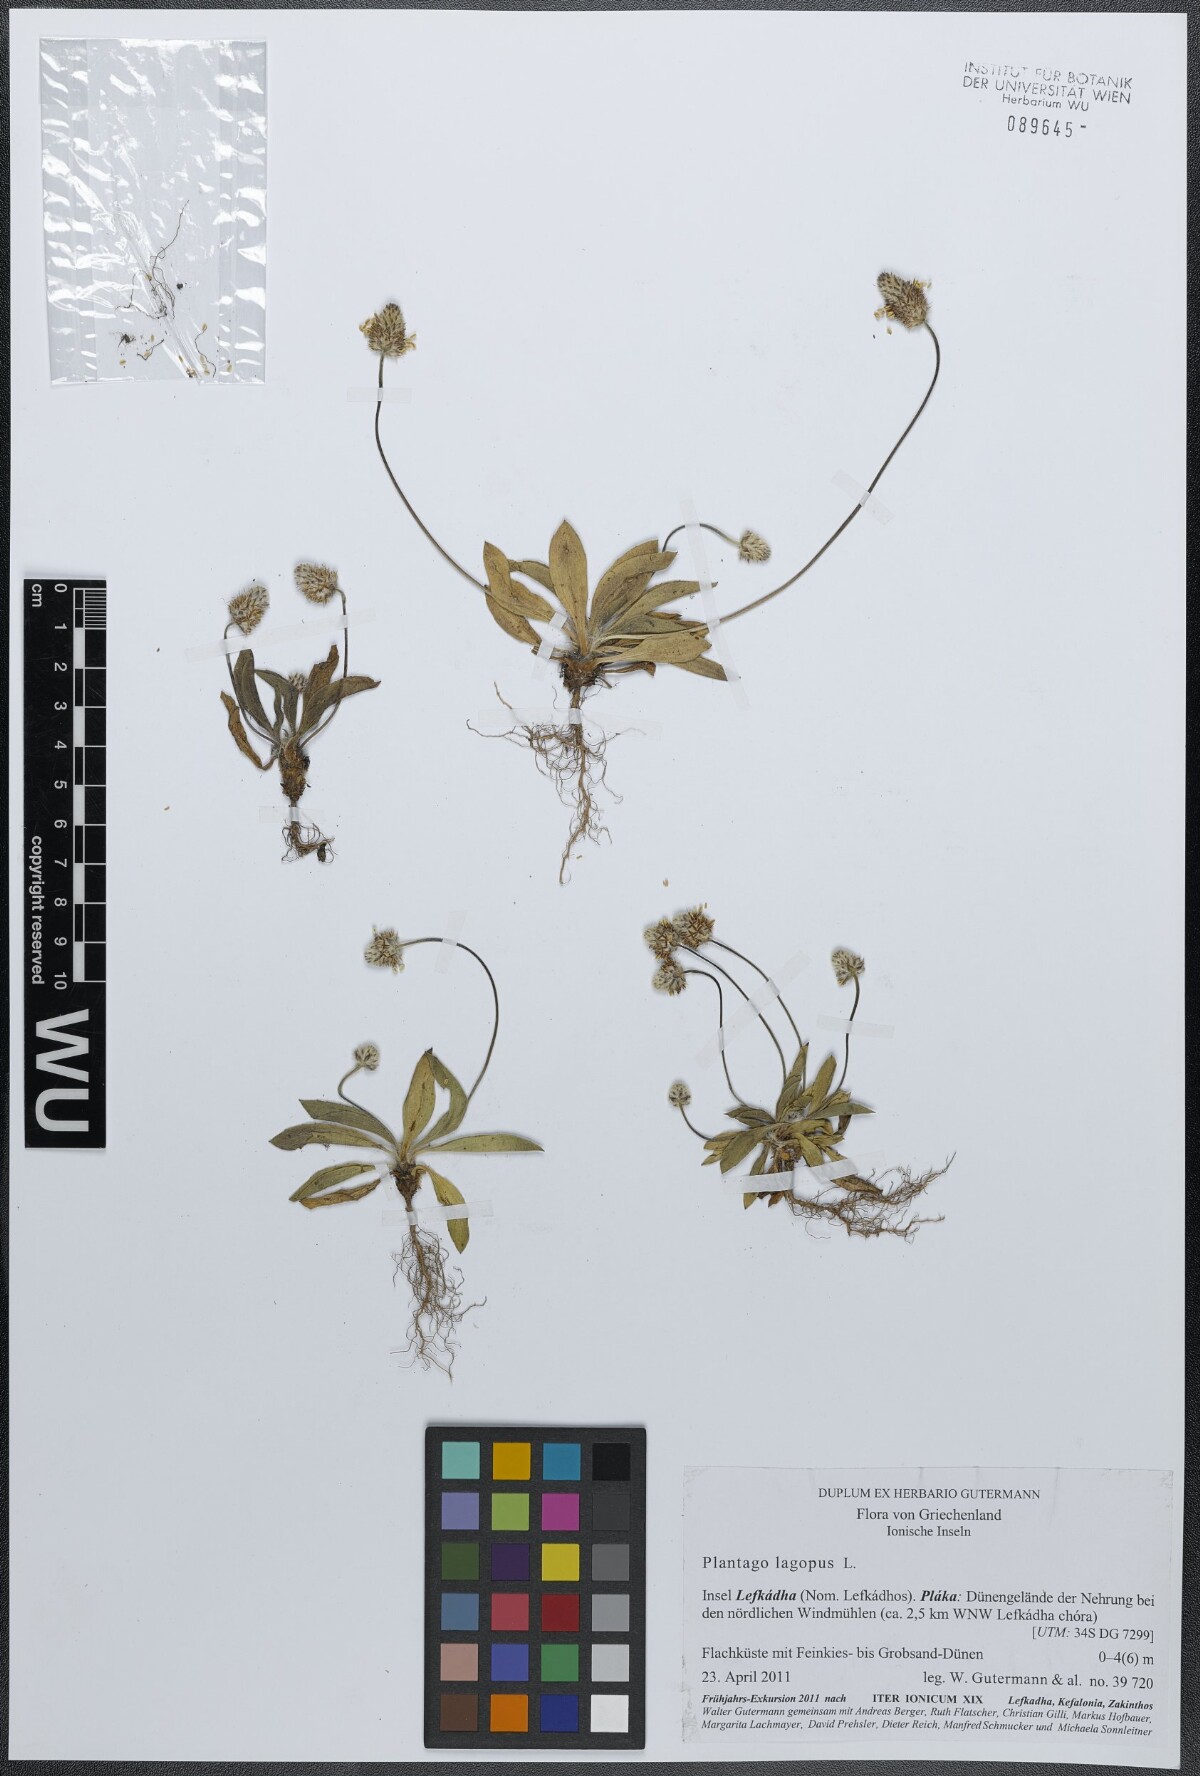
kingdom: Plantae
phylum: Tracheophyta
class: Magnoliopsida
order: Lamiales
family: Plantaginaceae
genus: Plantago
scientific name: Plantago lagopus
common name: Hare-foot plantain
